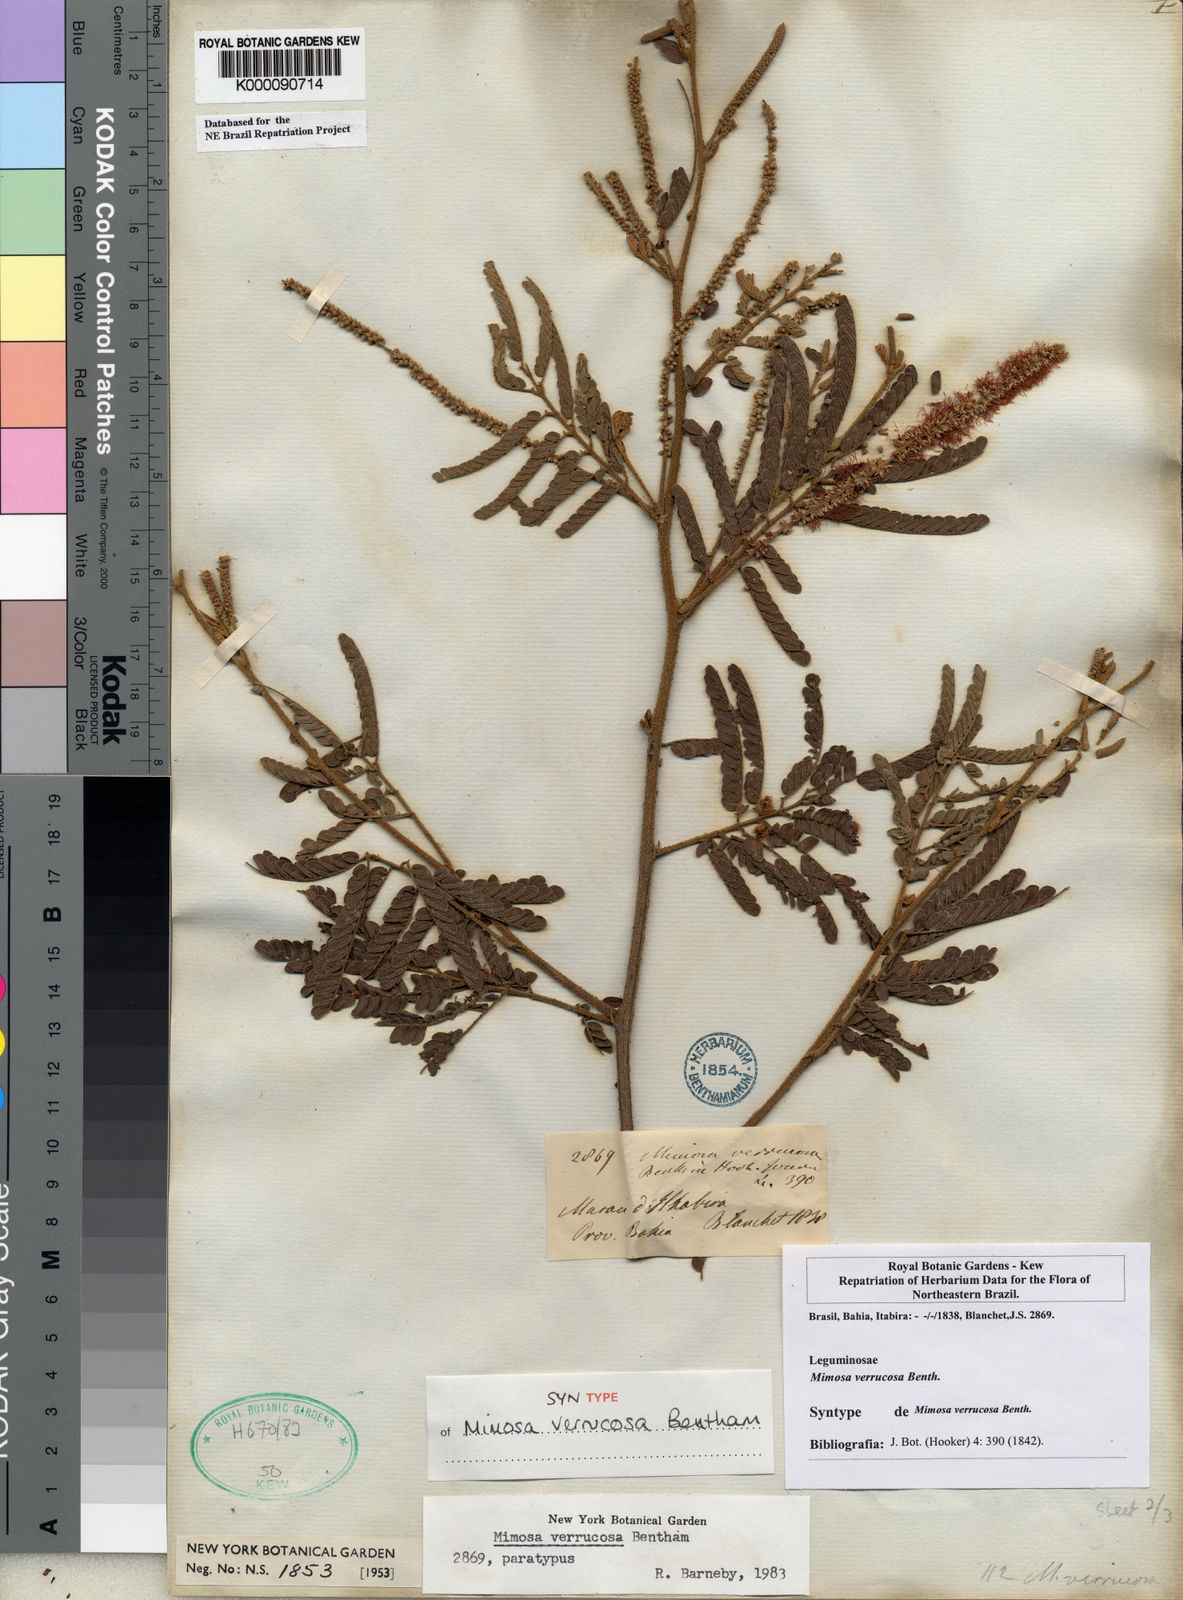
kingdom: Plantae
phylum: Tracheophyta
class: Magnoliopsida
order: Fabales
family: Fabaceae
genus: Mimosa
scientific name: Mimosa verrucosa
